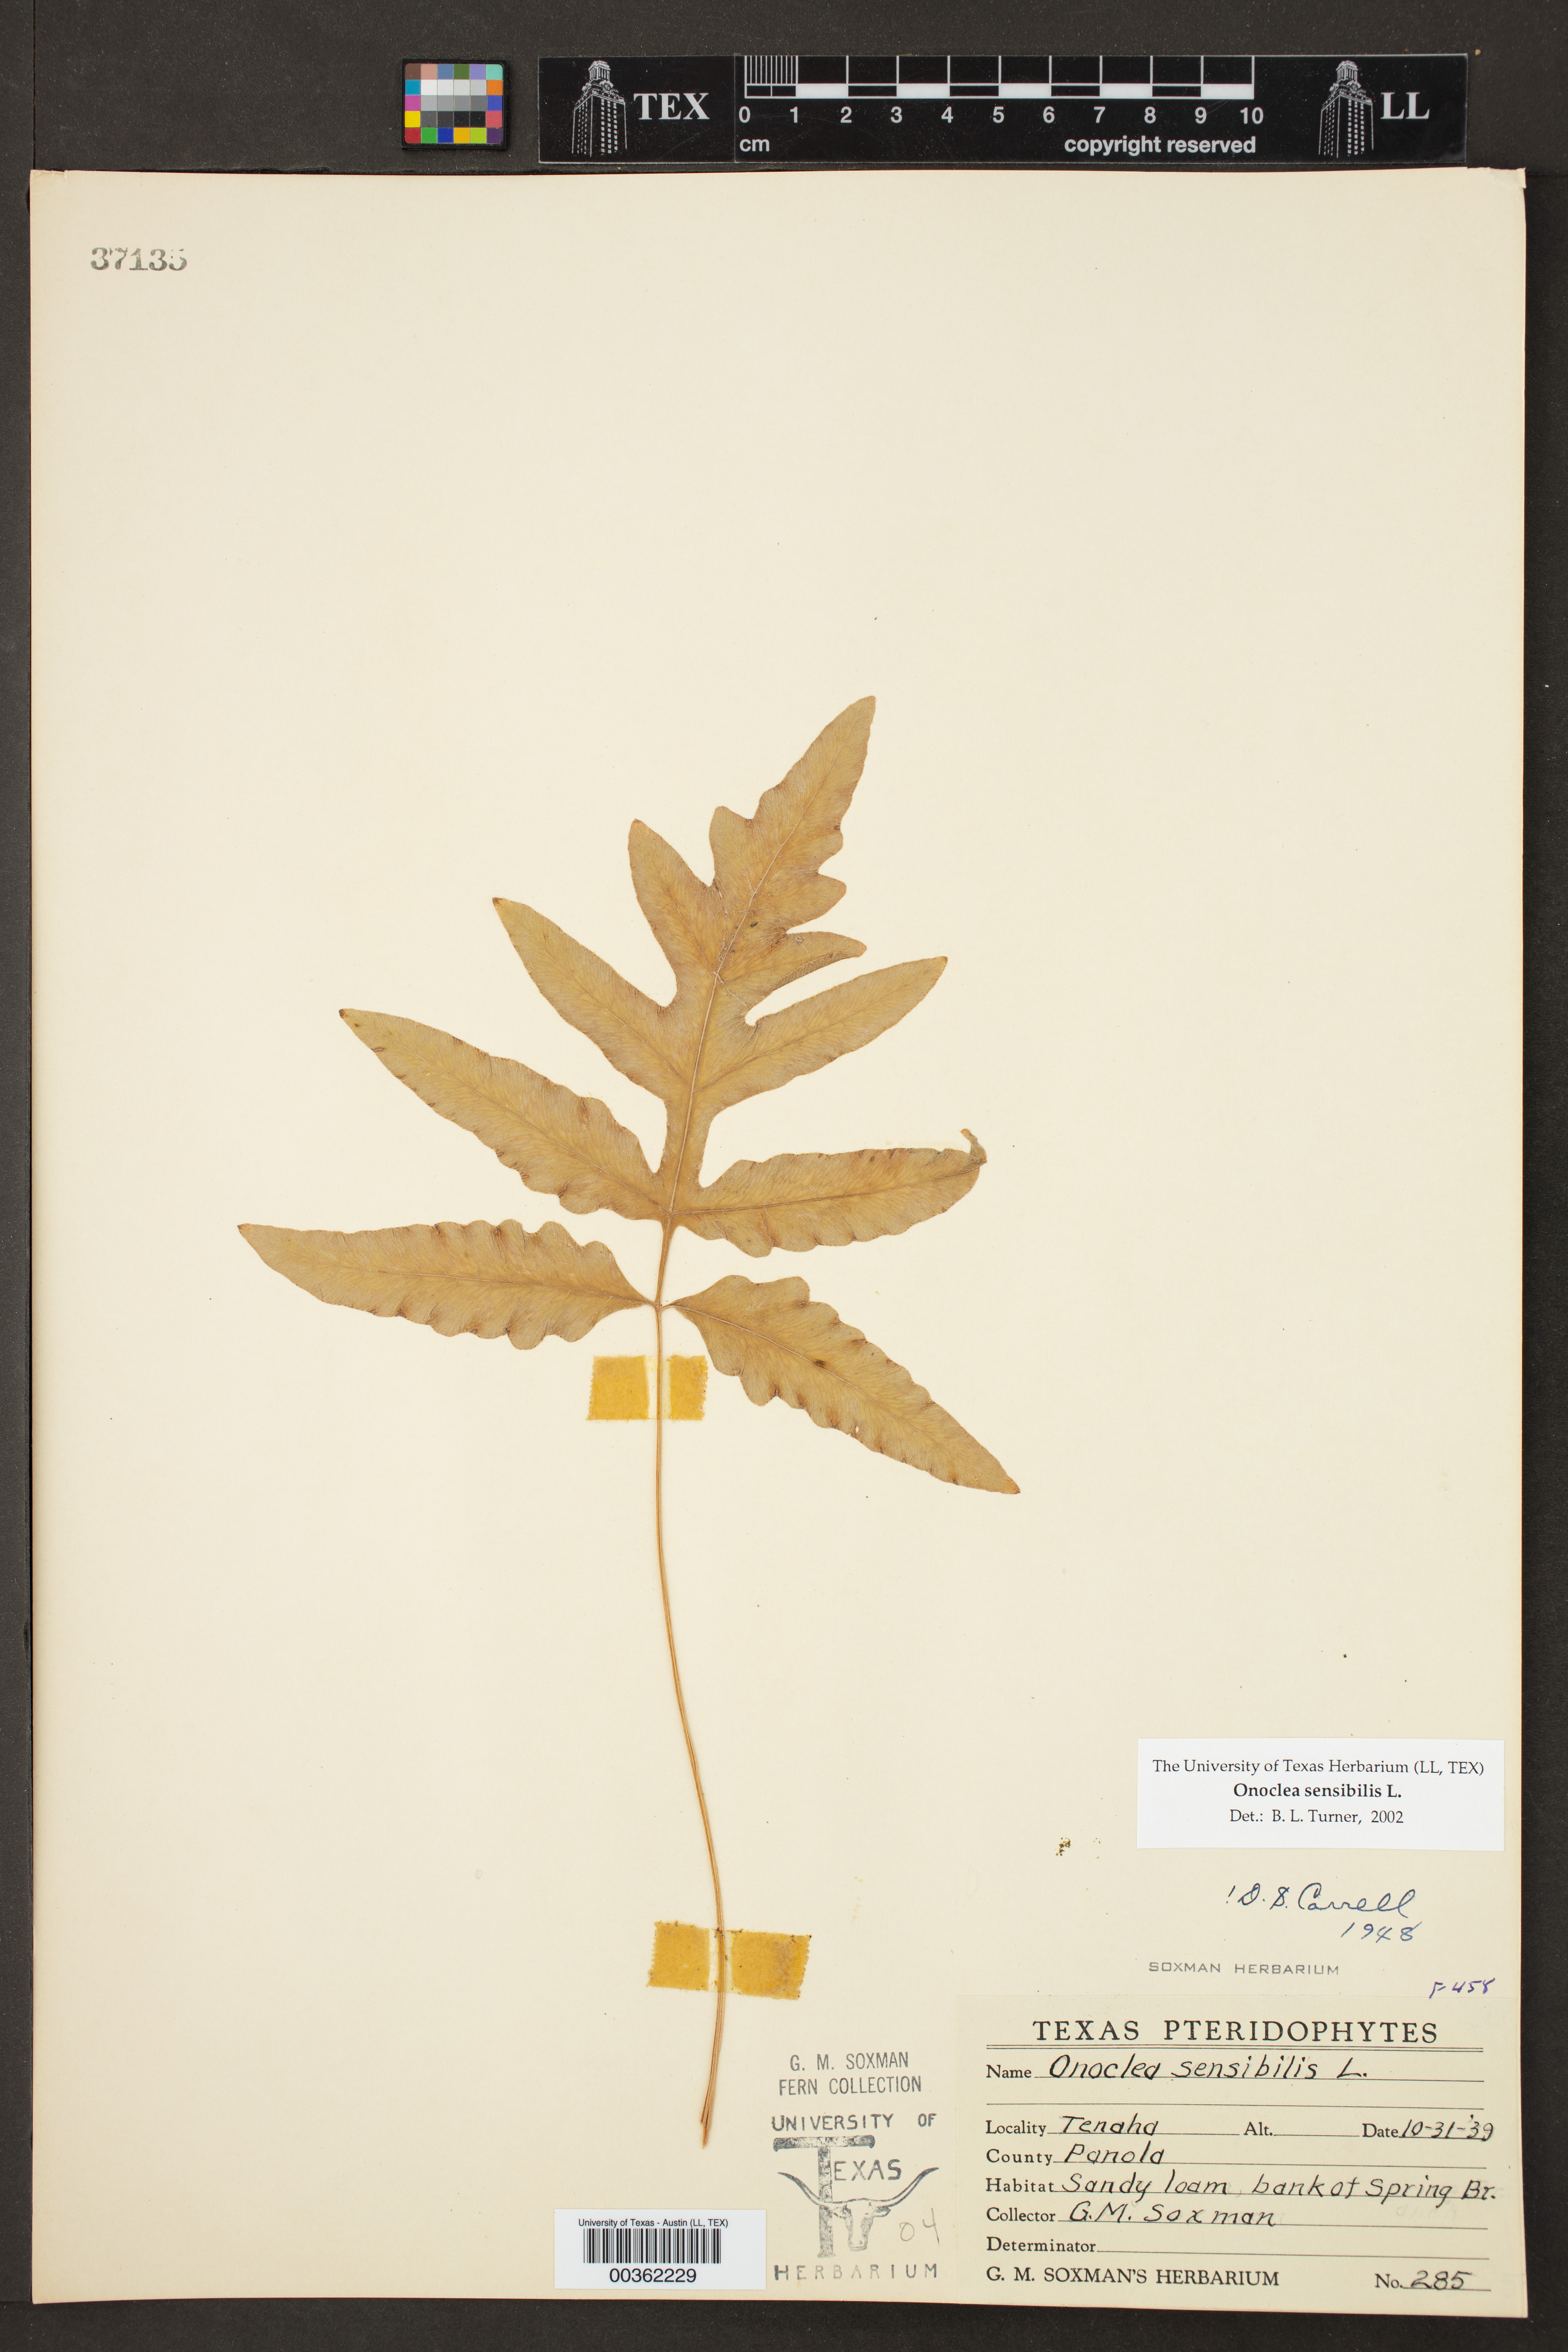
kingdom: Plantae
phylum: Tracheophyta
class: Polypodiopsida
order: Polypodiales
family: Onocleaceae
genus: Onoclea
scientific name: Onoclea sensibilis
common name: Sensitive fern
